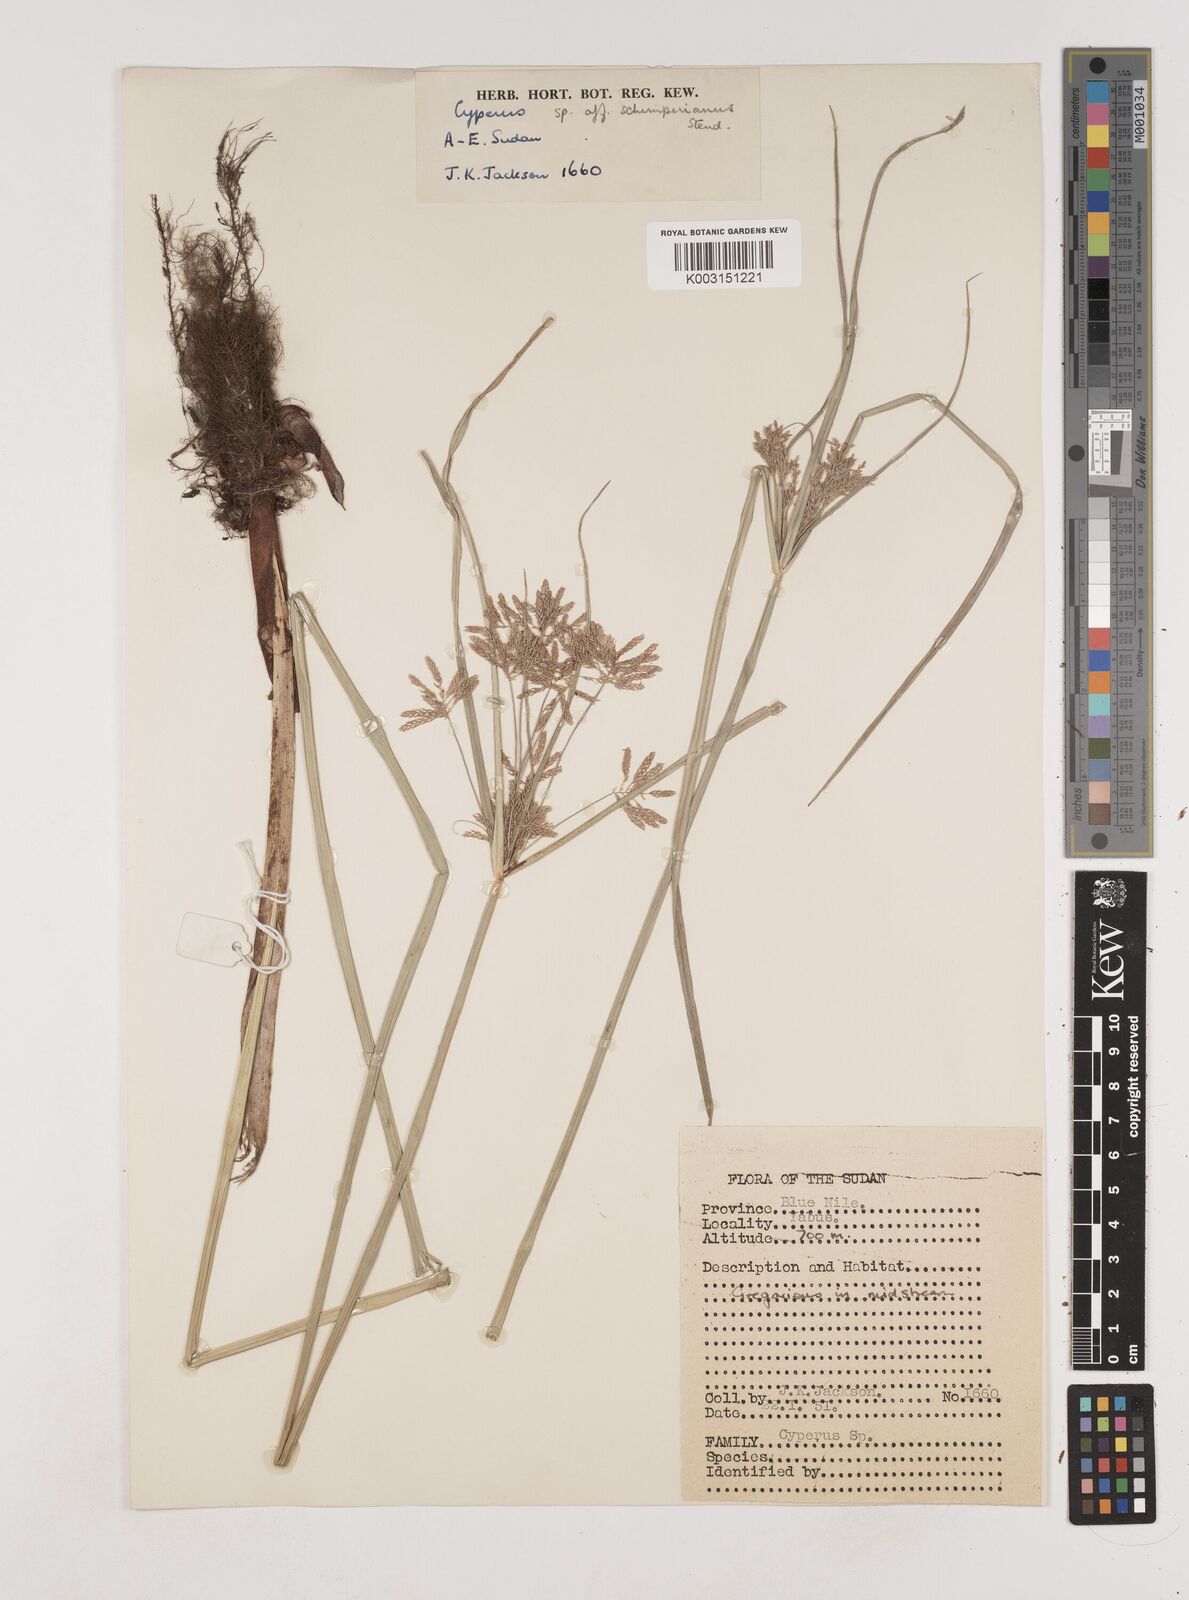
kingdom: Plantae
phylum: Tracheophyta
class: Liliopsida
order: Poales
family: Cyperaceae
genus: Cyperus
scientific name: Cyperus
